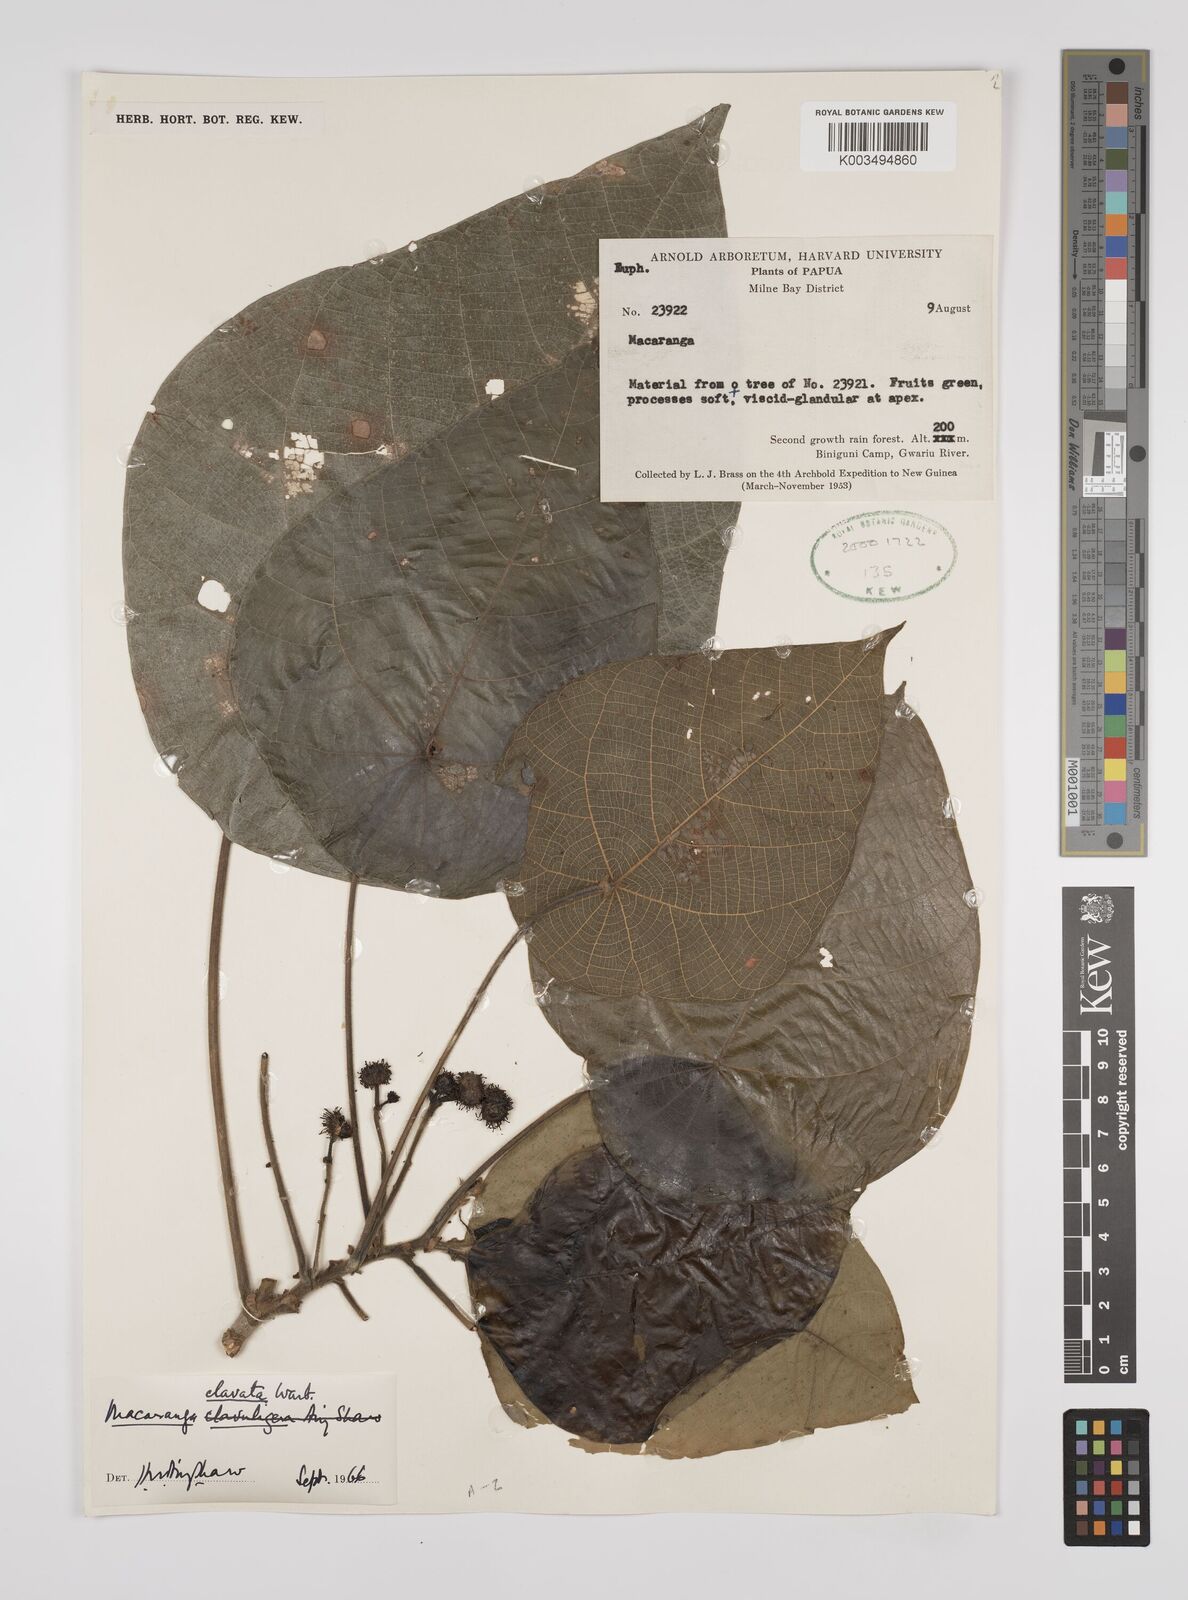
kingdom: Plantae
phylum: Tracheophyta
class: Magnoliopsida
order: Malpighiales
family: Euphorbiaceae
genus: Macaranga
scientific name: Macaranga clavata
